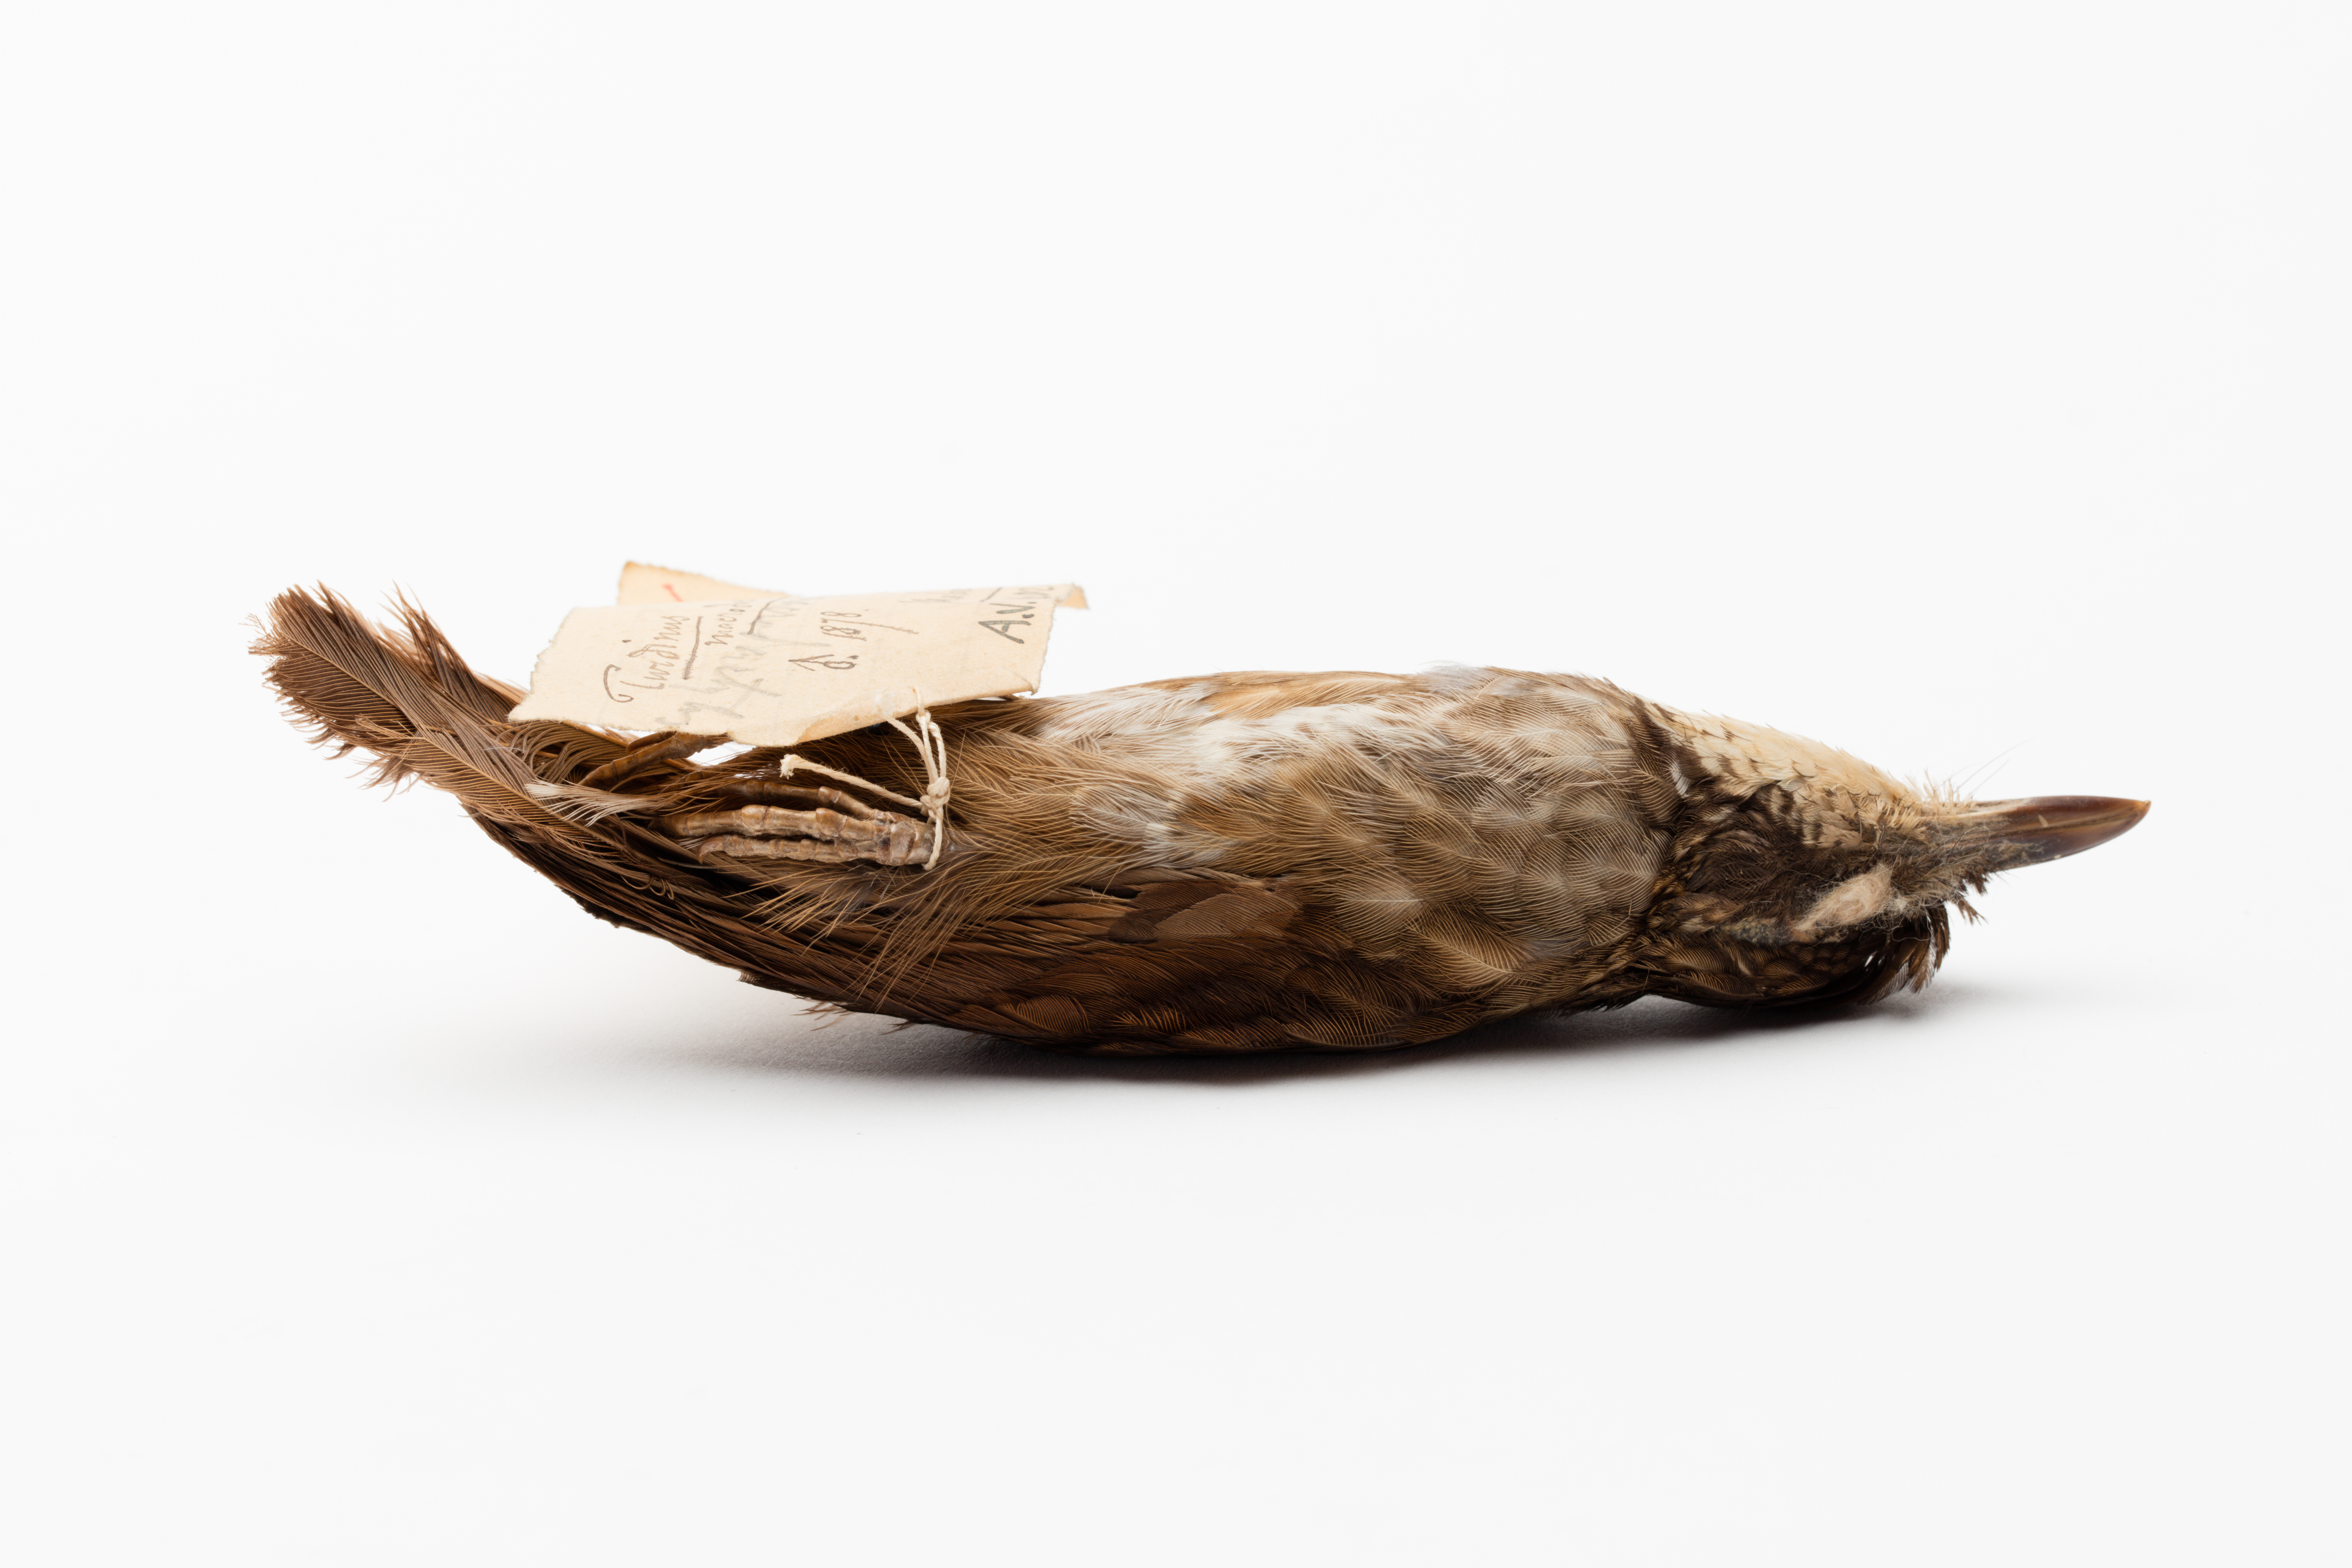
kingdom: Animalia
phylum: Chordata
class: Aves
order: Passeriformes
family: Pellorneidae
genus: Napothera
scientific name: Napothera macrodactyla
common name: Large wren-babbler
